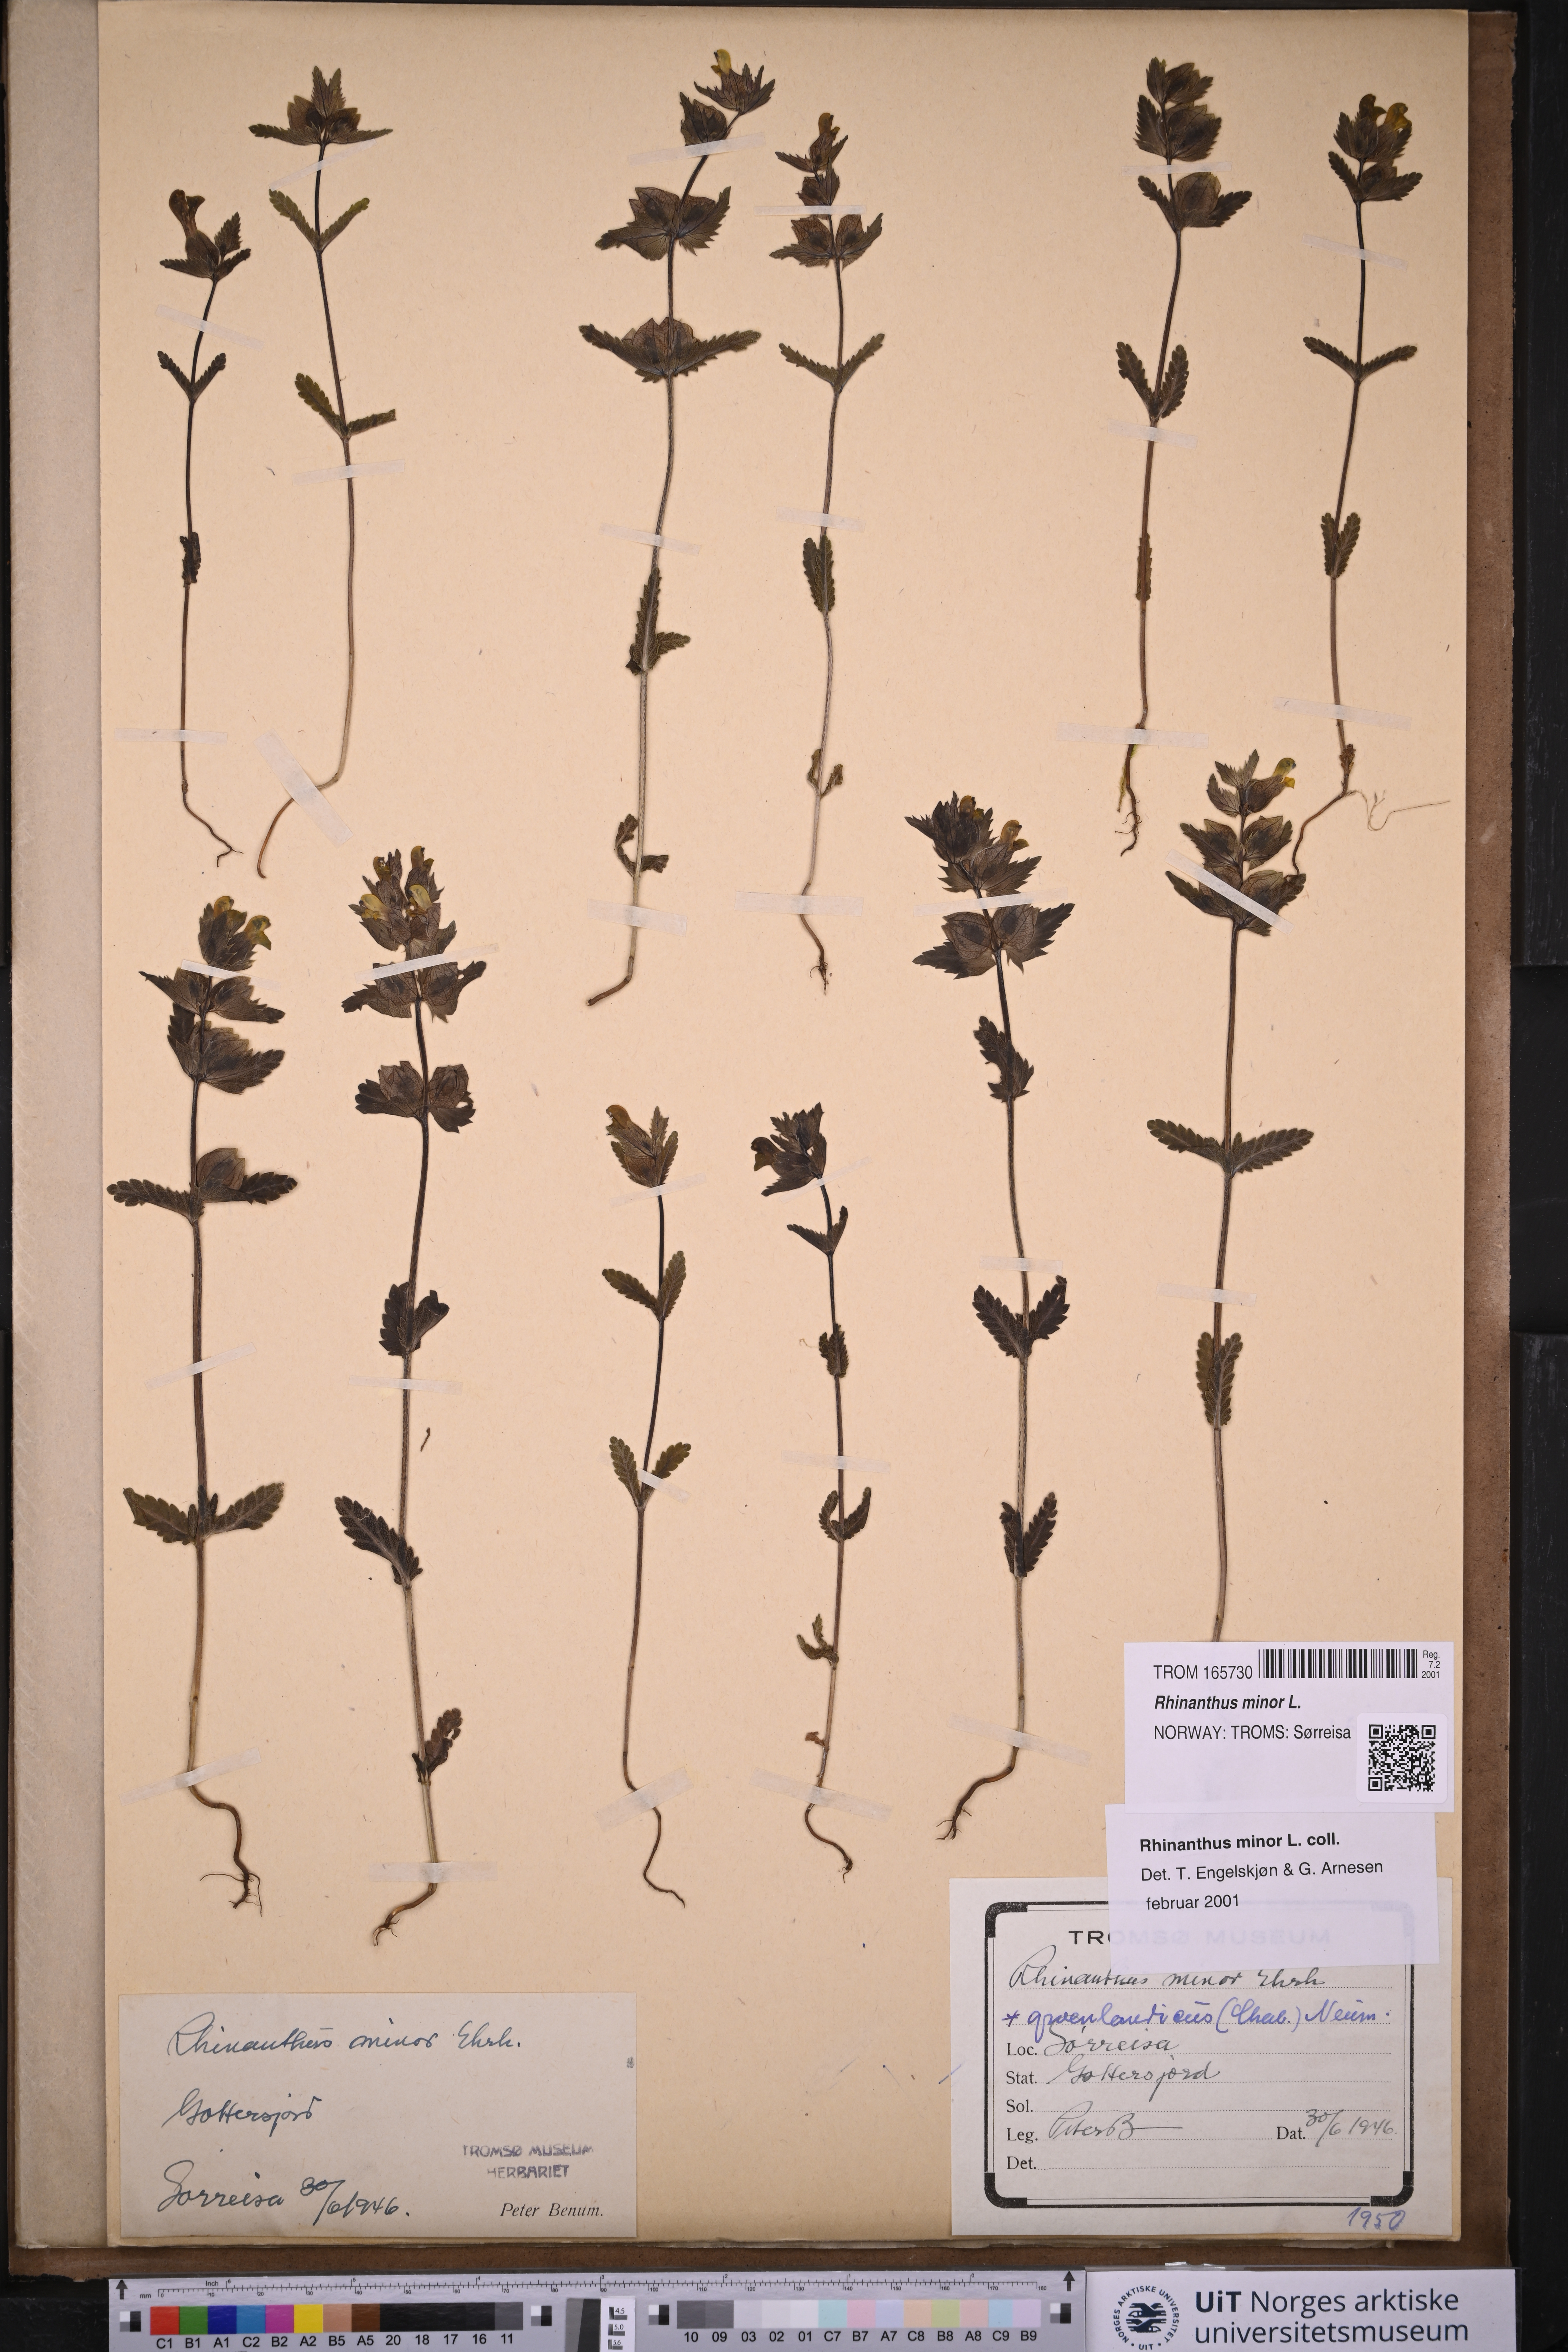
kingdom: Plantae
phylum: Tracheophyta
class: Magnoliopsida
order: Lamiales
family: Orobanchaceae
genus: Rhinanthus
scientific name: Rhinanthus minor
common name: Yellow-rattle
